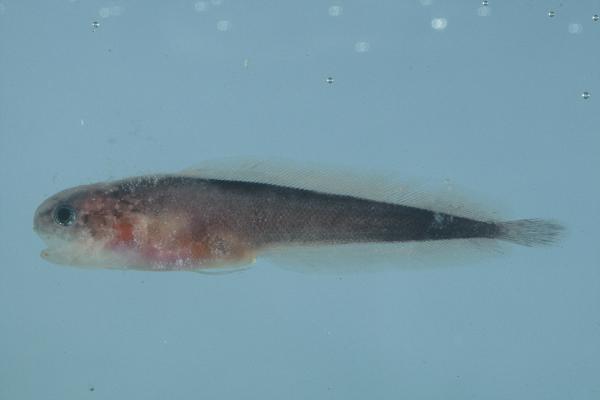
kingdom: Animalia
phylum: Chordata
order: Ophidiiformes
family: Bythitidae
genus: Brosmophyciops
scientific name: Brosmophyciops pautzkei
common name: Slimy cuskeel
